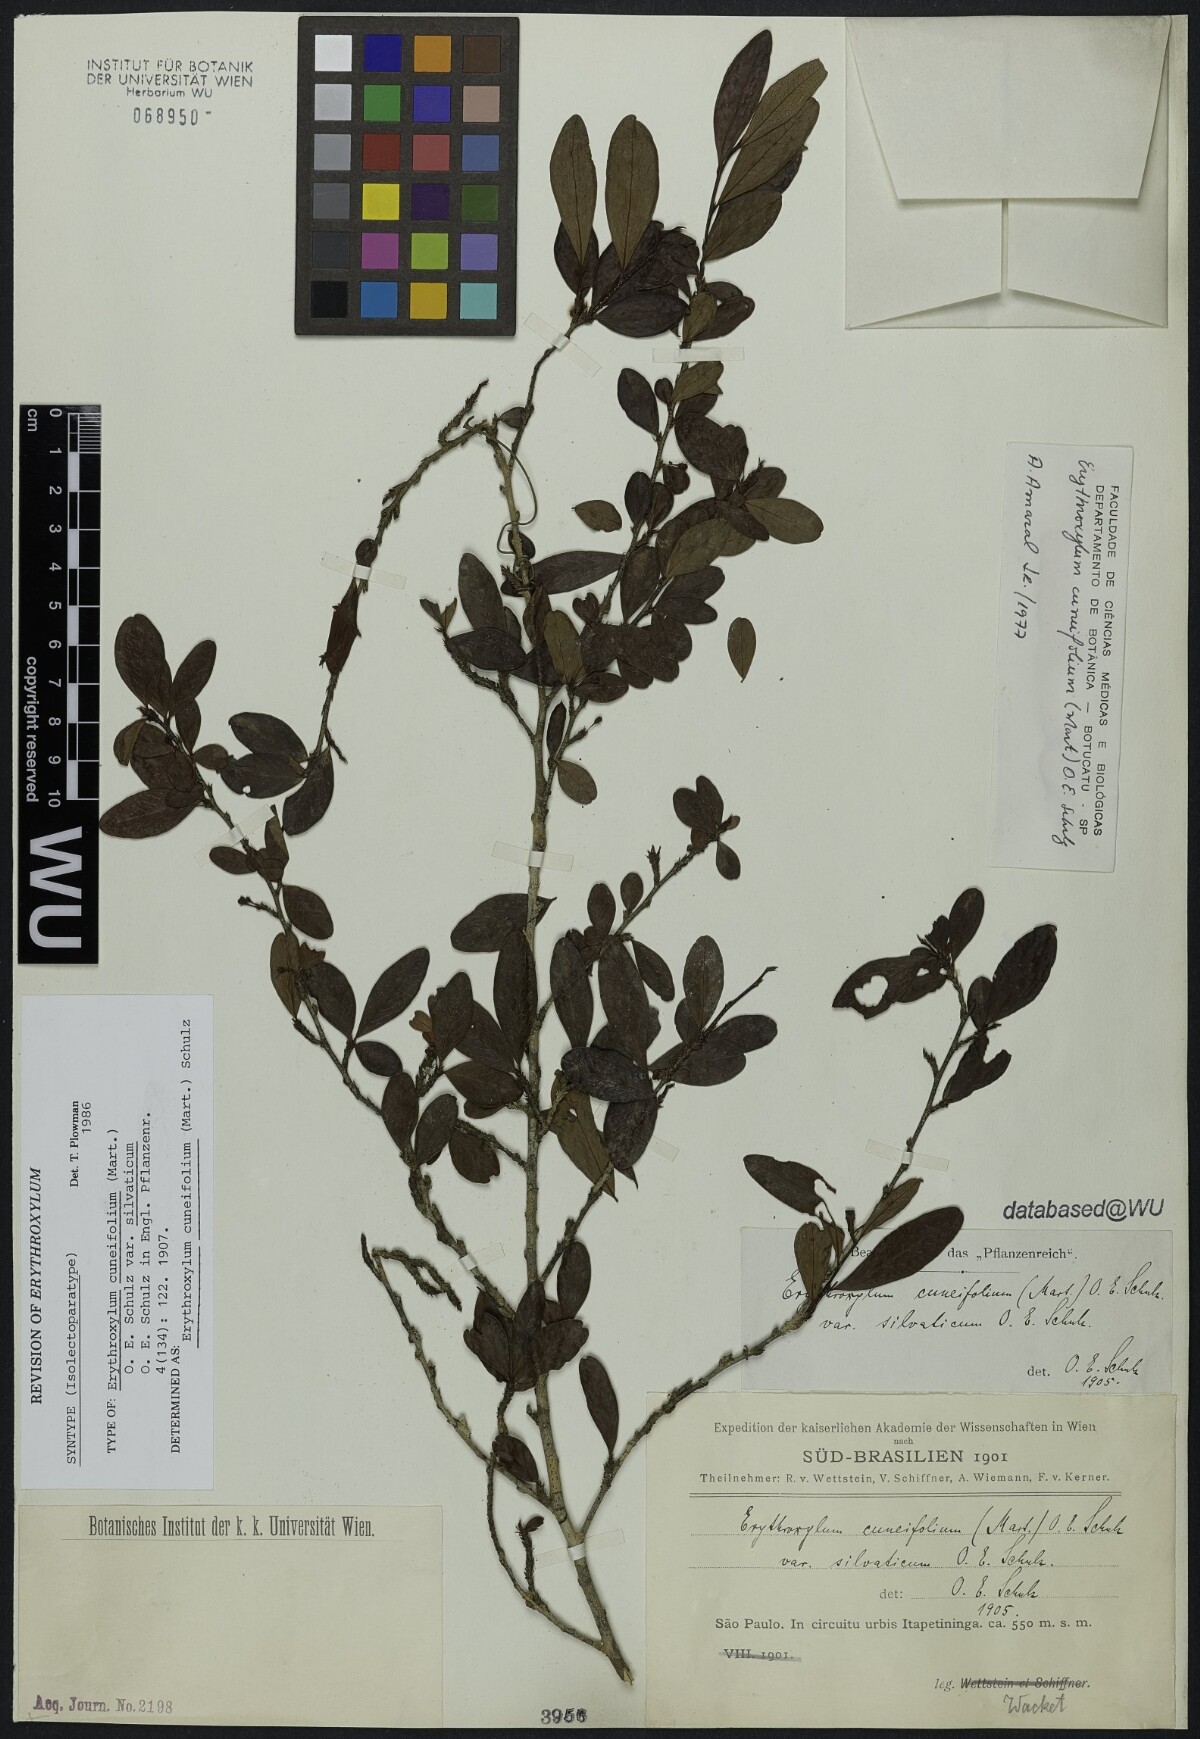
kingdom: Plantae
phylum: Tracheophyta
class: Magnoliopsida
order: Malpighiales
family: Erythroxylaceae
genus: Erythroxylum
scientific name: Erythroxylum cuneifolium
